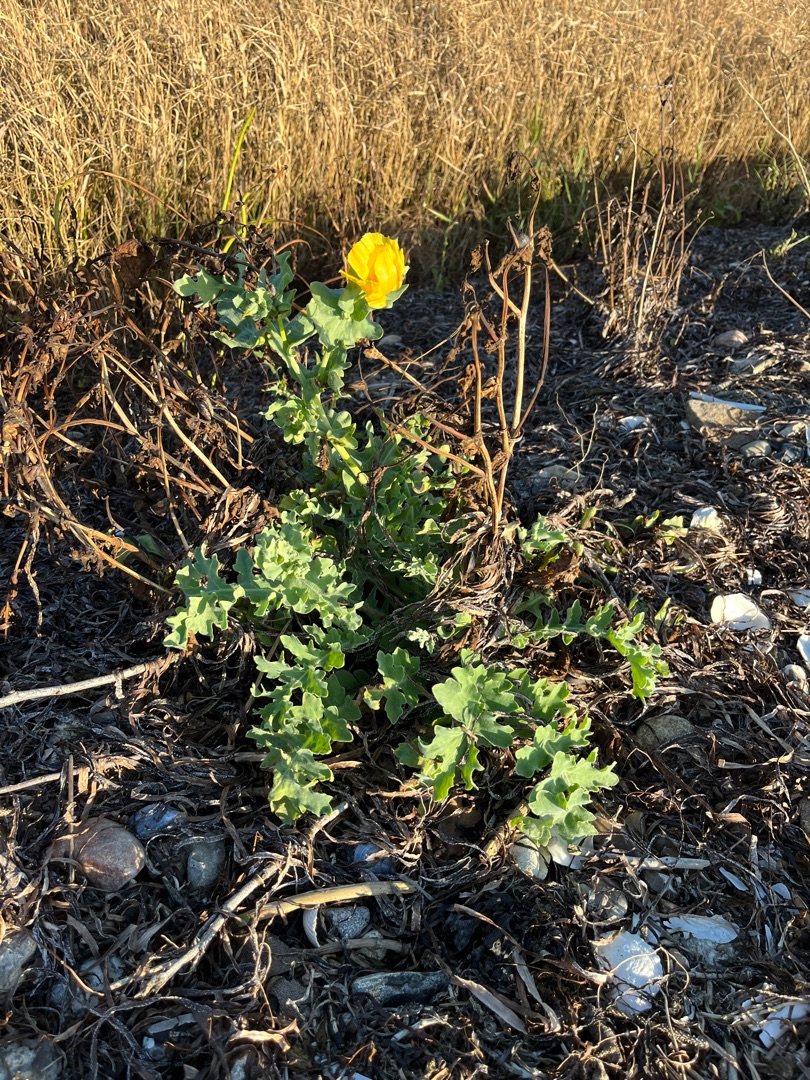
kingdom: Plantae
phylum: Tracheophyta
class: Magnoliopsida
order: Ranunculales
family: Papaveraceae
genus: Glaucium
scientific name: Glaucium flavum
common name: Hornskulpe
